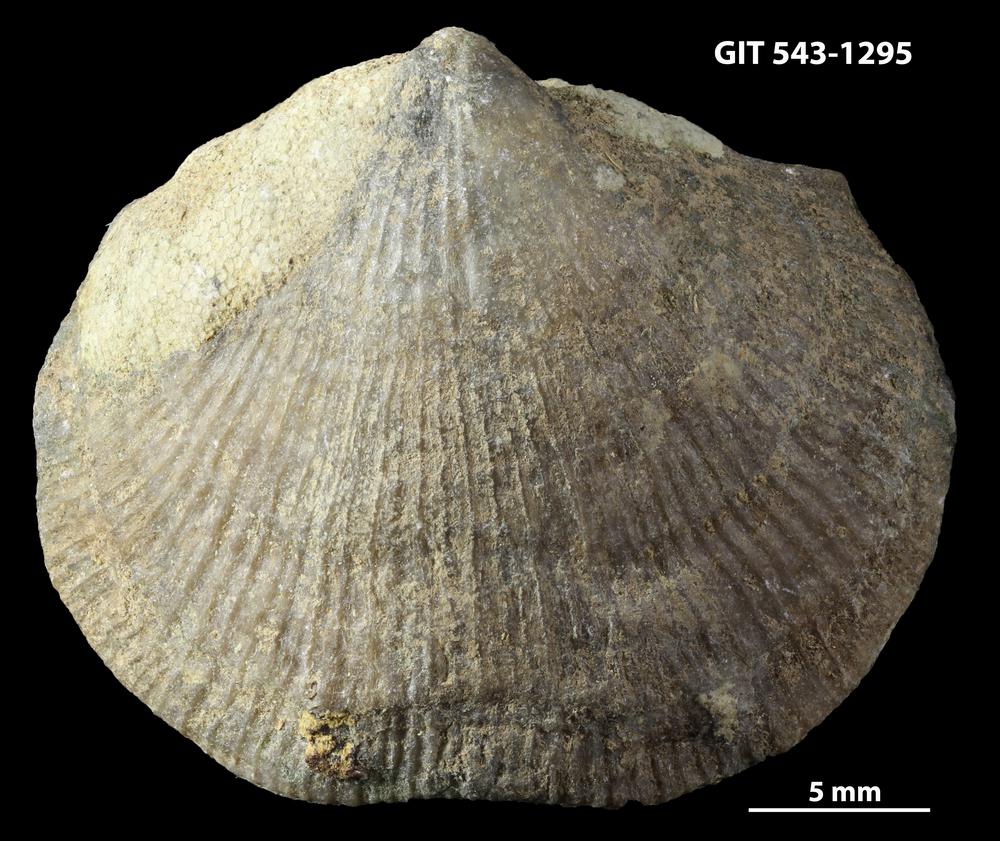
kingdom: Animalia
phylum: Brachiopoda
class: Rhynchonellata
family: Clitambonitidae
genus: Vellamo
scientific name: Vellamo oandoensis
